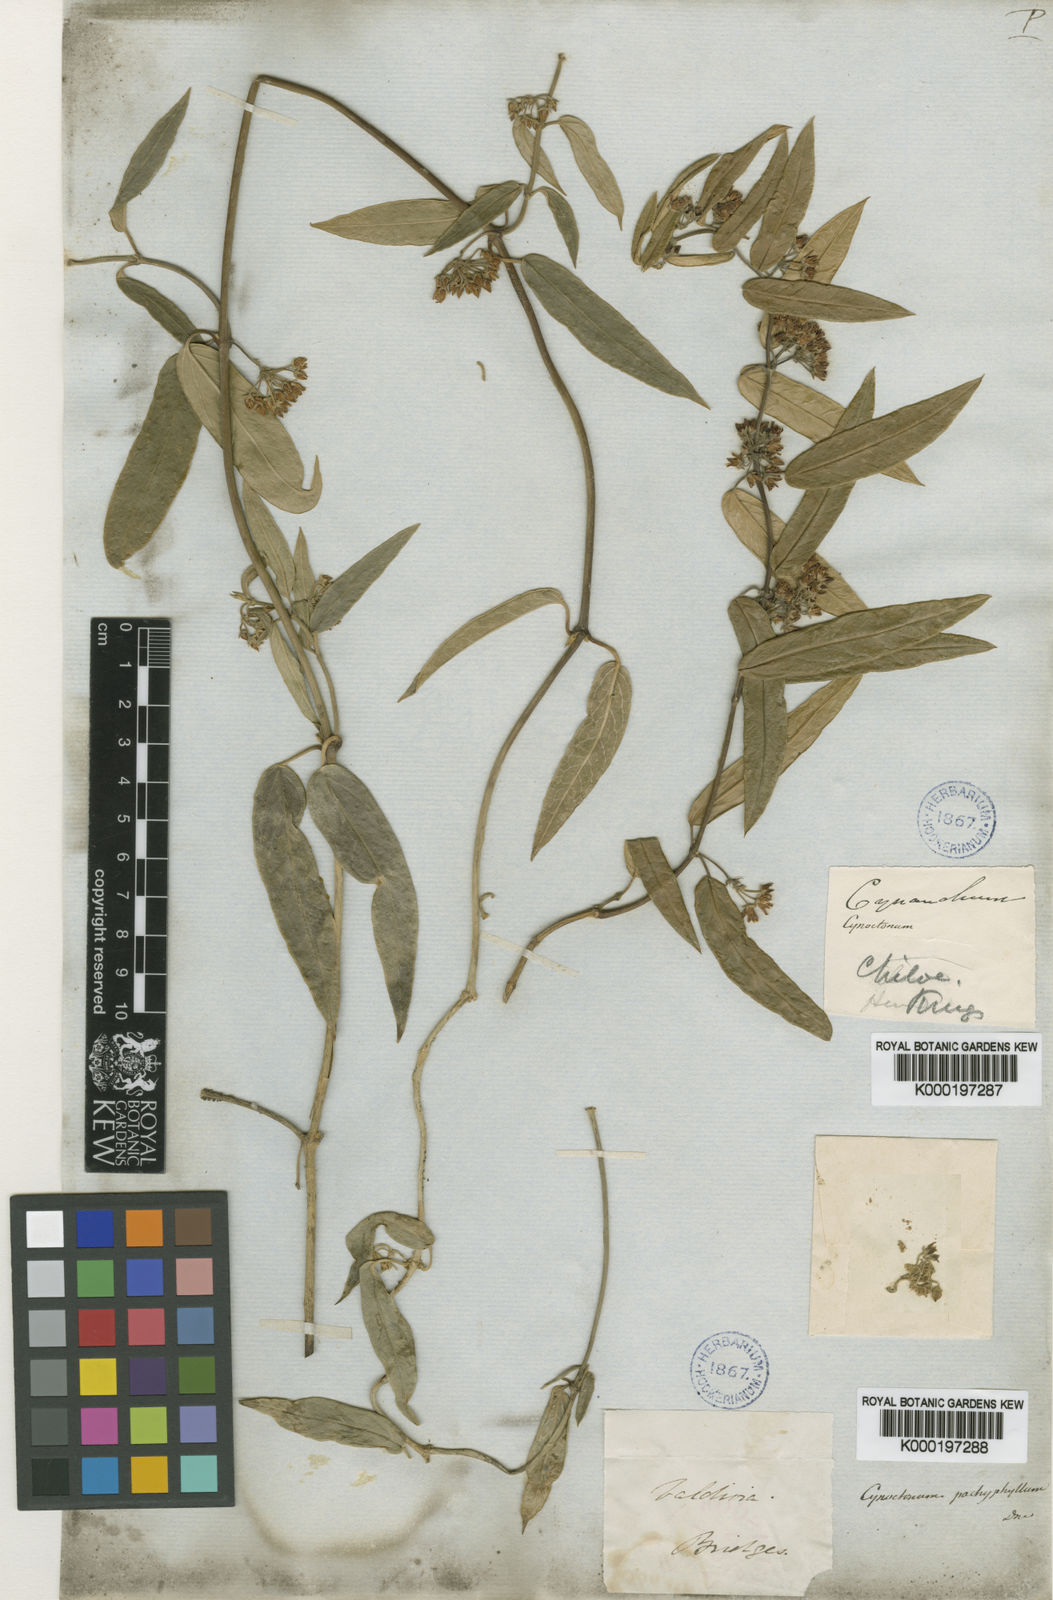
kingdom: Plantae
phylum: Tracheophyta
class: Magnoliopsida
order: Gentianales
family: Apocynaceae
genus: Diplolepis
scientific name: Diplolepis pachyphylla
